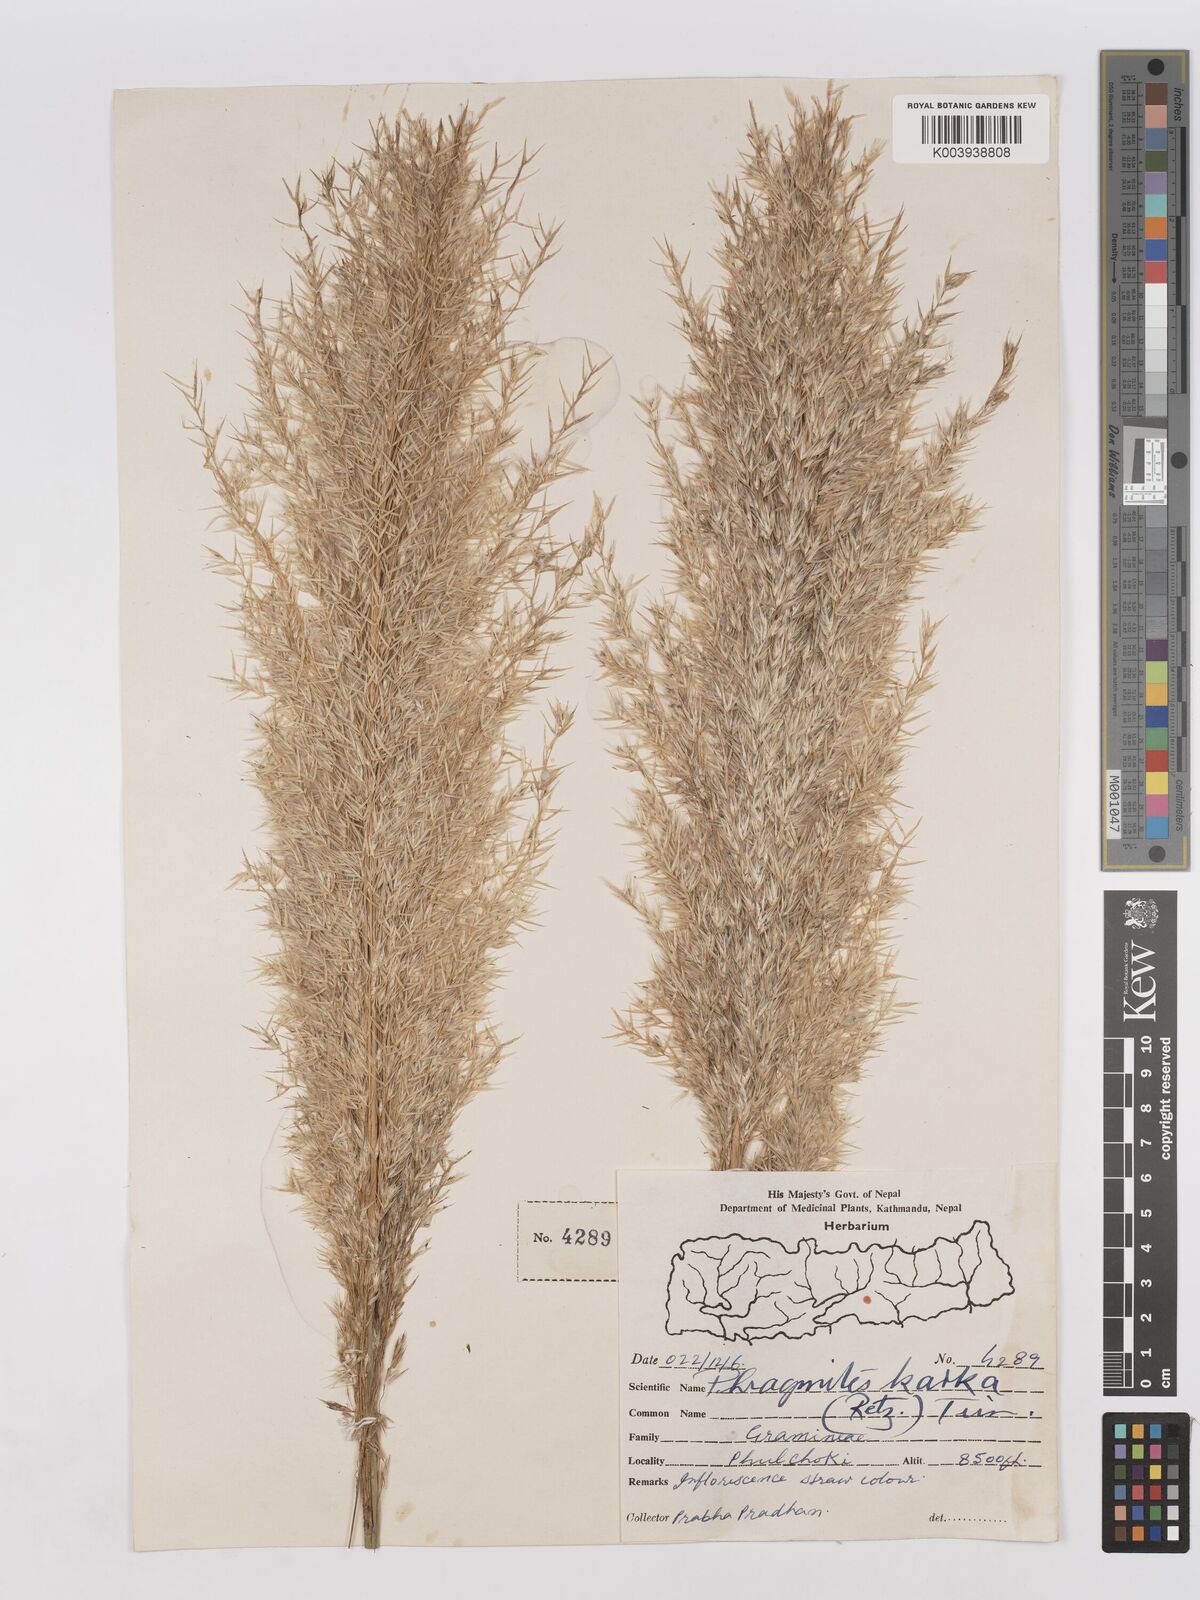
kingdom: Plantae
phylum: Tracheophyta
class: Liliopsida
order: Poales
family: Poaceae
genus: Phragmites
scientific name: Phragmites karka
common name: Tropical reed
